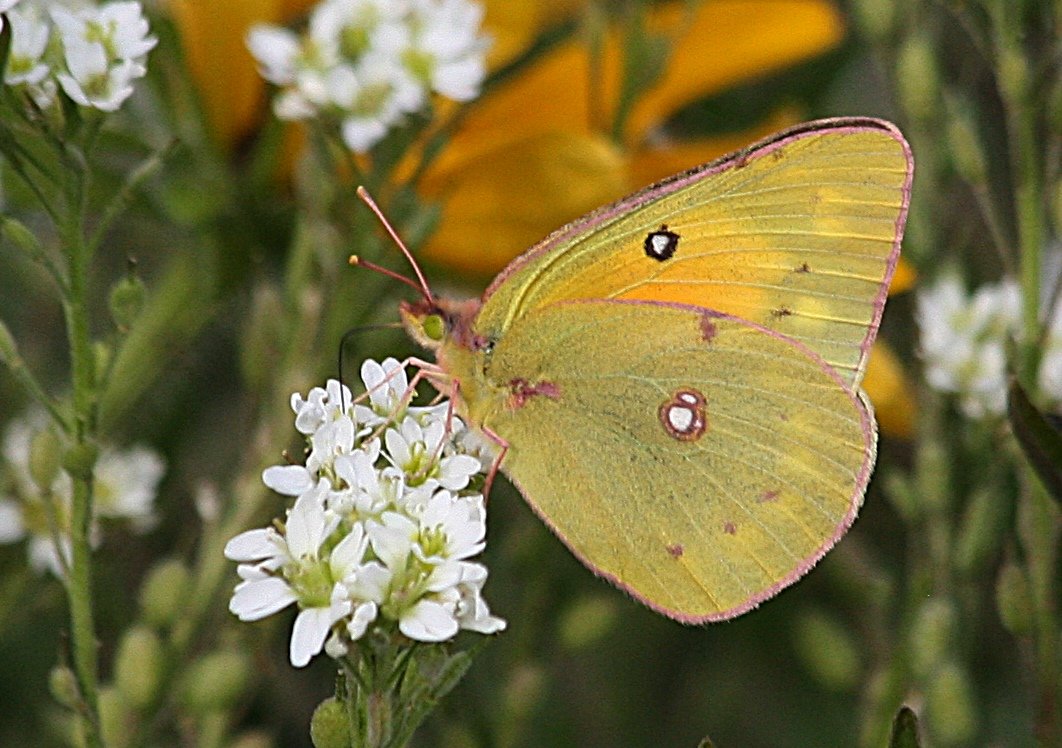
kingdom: Animalia
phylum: Arthropoda
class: Insecta
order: Lepidoptera
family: Pieridae
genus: Colias
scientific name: Colias eurytheme
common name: Orange Sulphur
